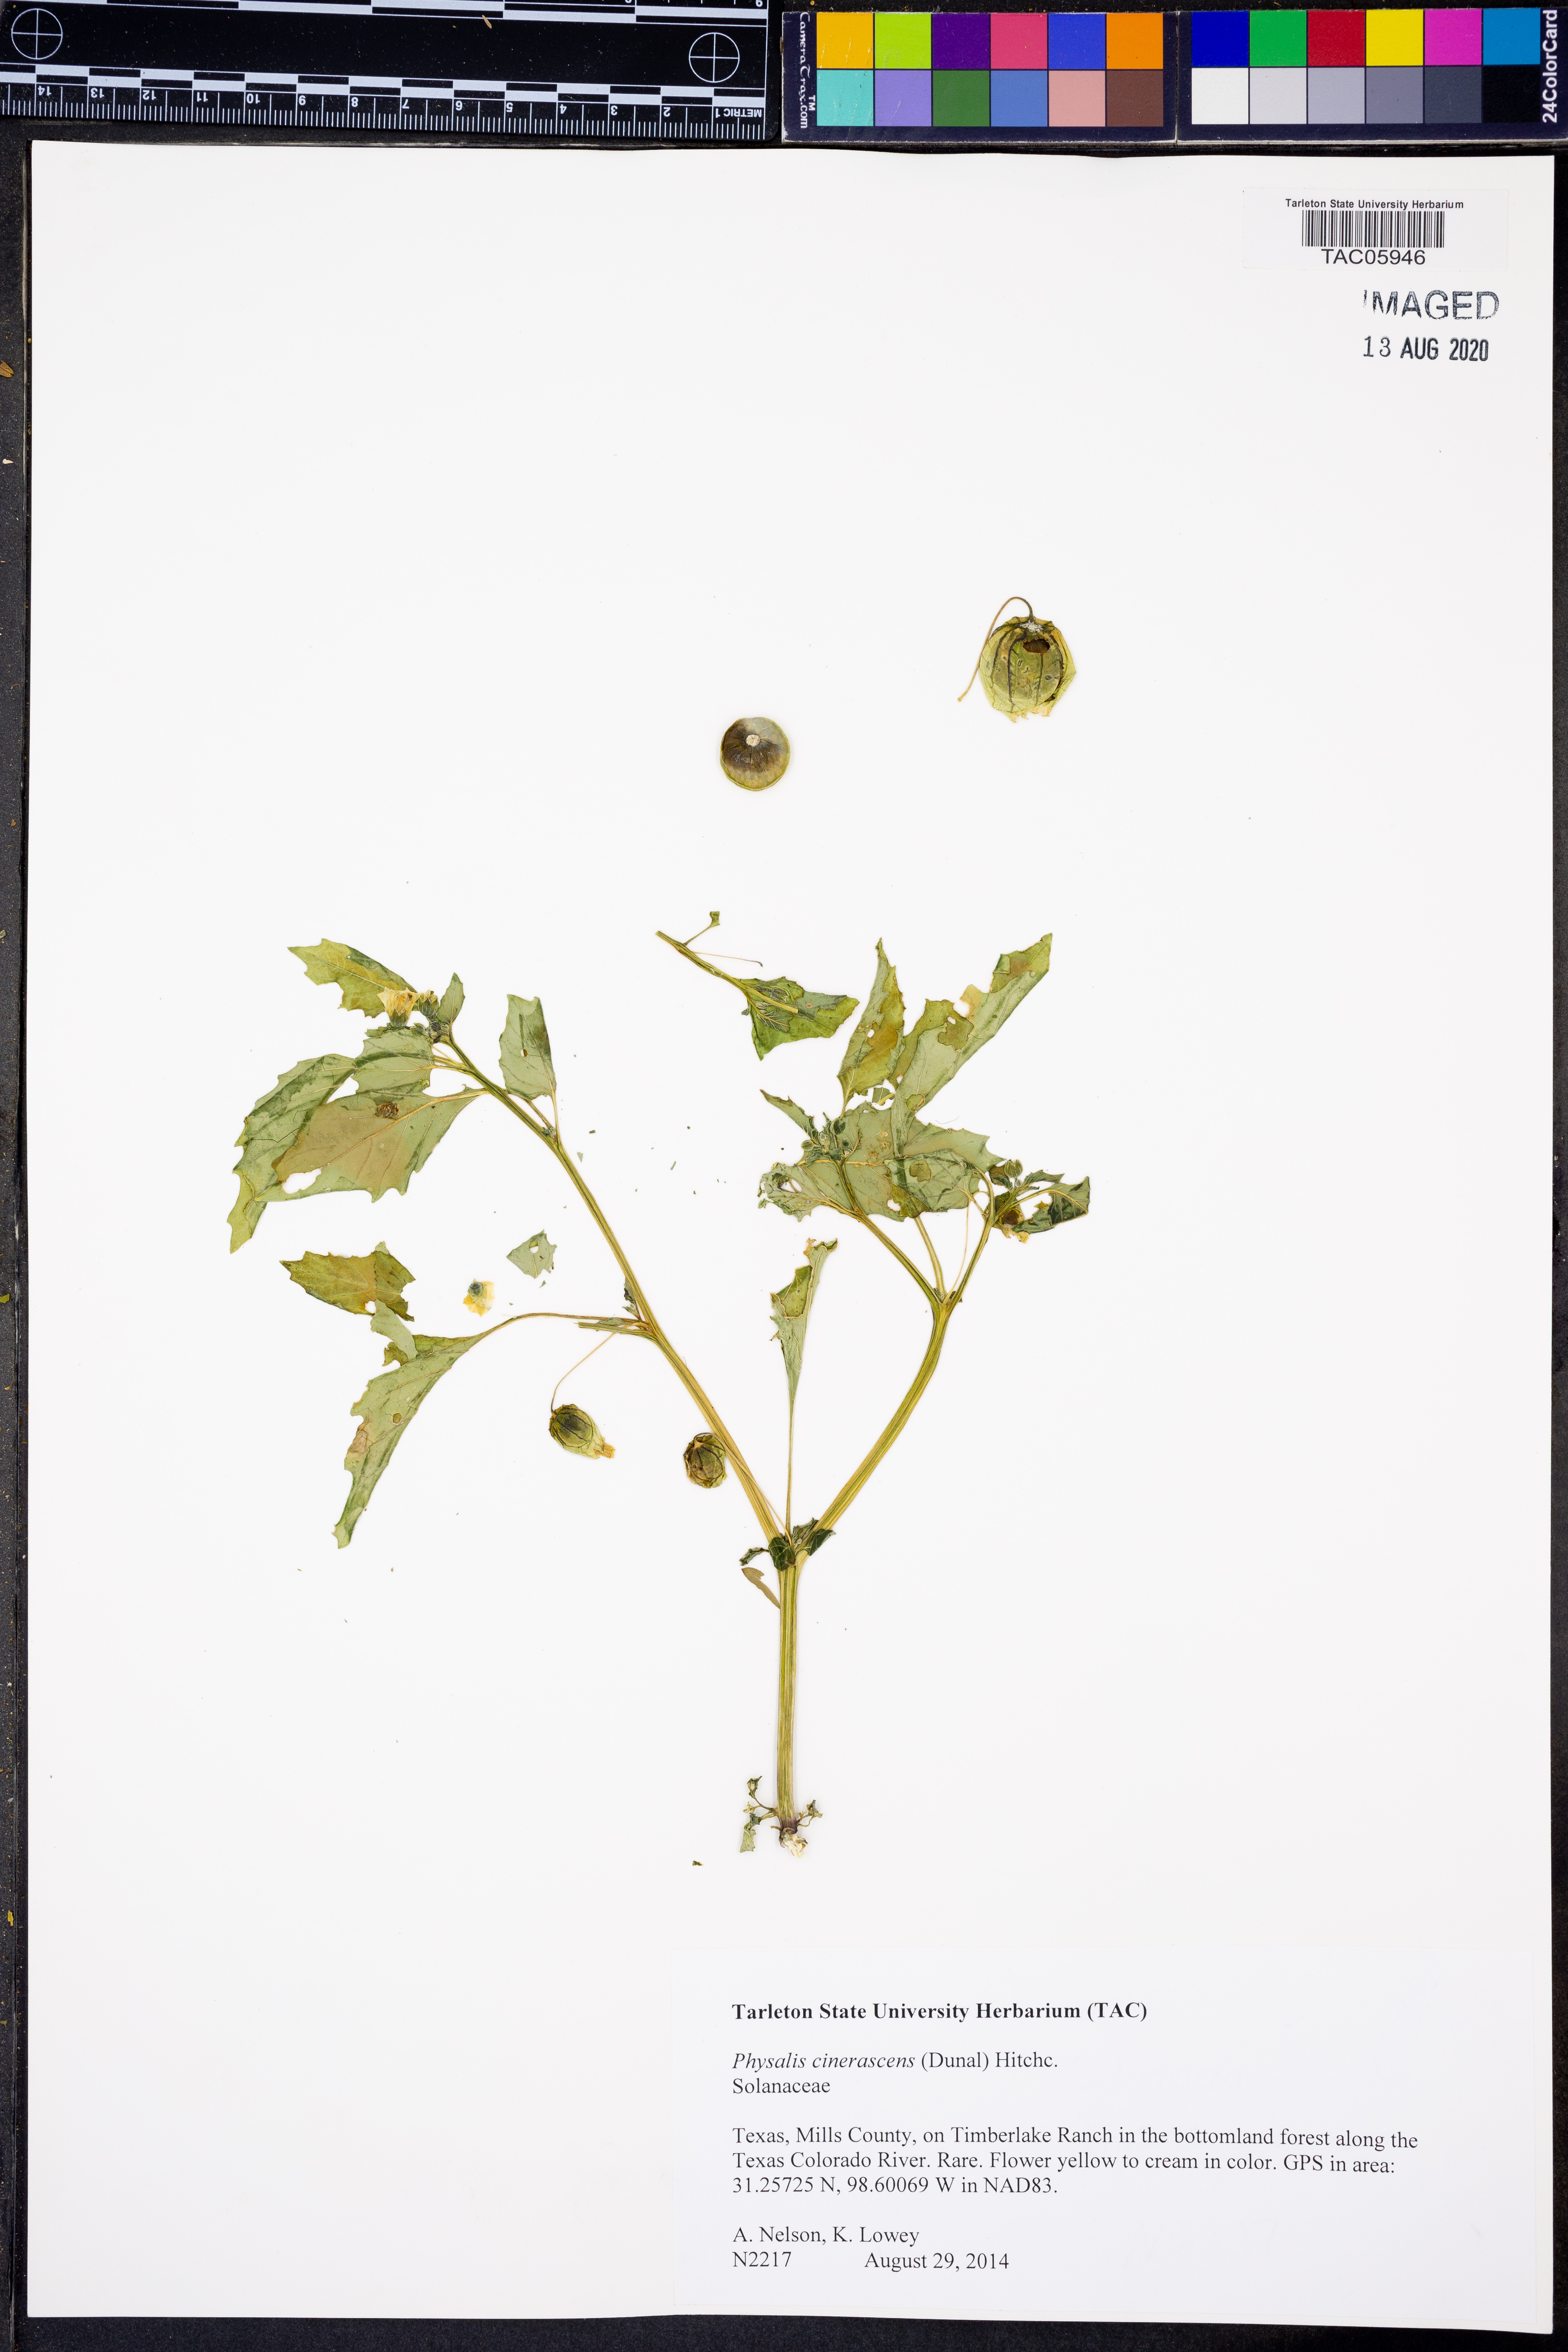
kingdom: Plantae
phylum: Tracheophyta
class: Magnoliopsida
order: Solanales
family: Solanaceae
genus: Physalis
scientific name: Physalis cinerascens
